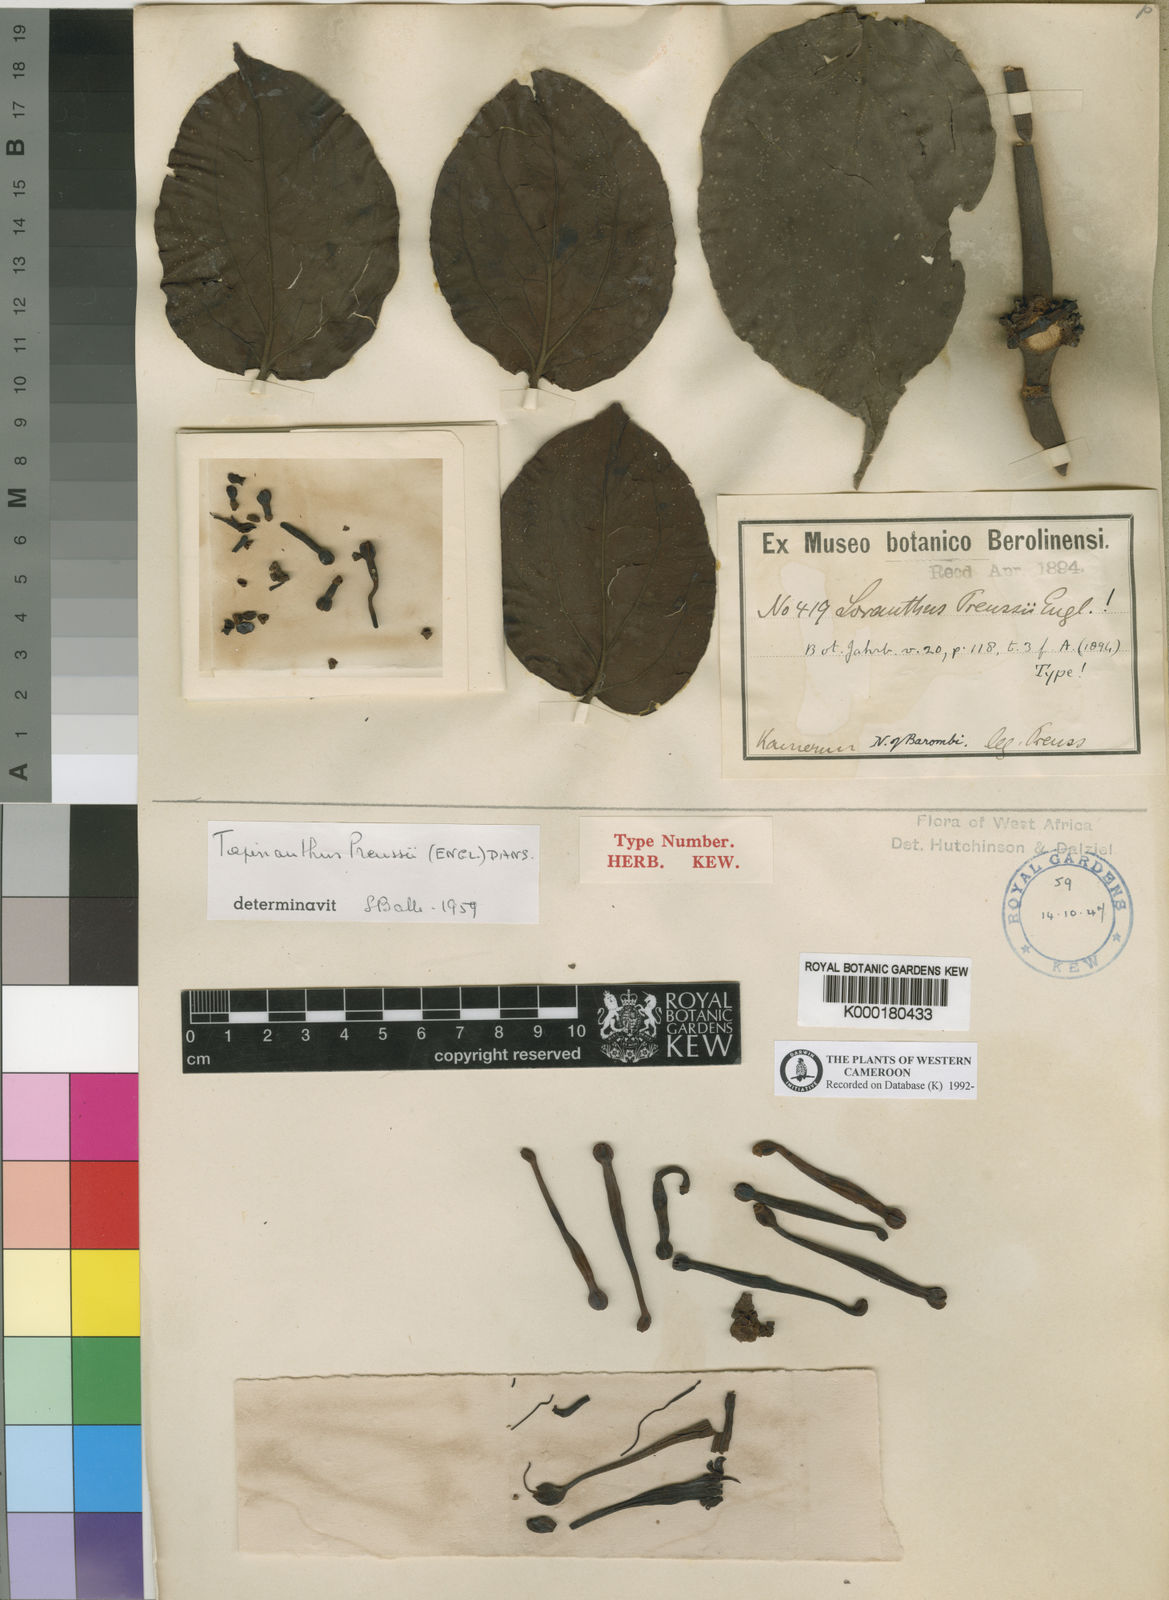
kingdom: Plantae
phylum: Tracheophyta
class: Magnoliopsida
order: Santalales
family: Loranthaceae
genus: Tapinanthus
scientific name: Tapinanthus preussii
